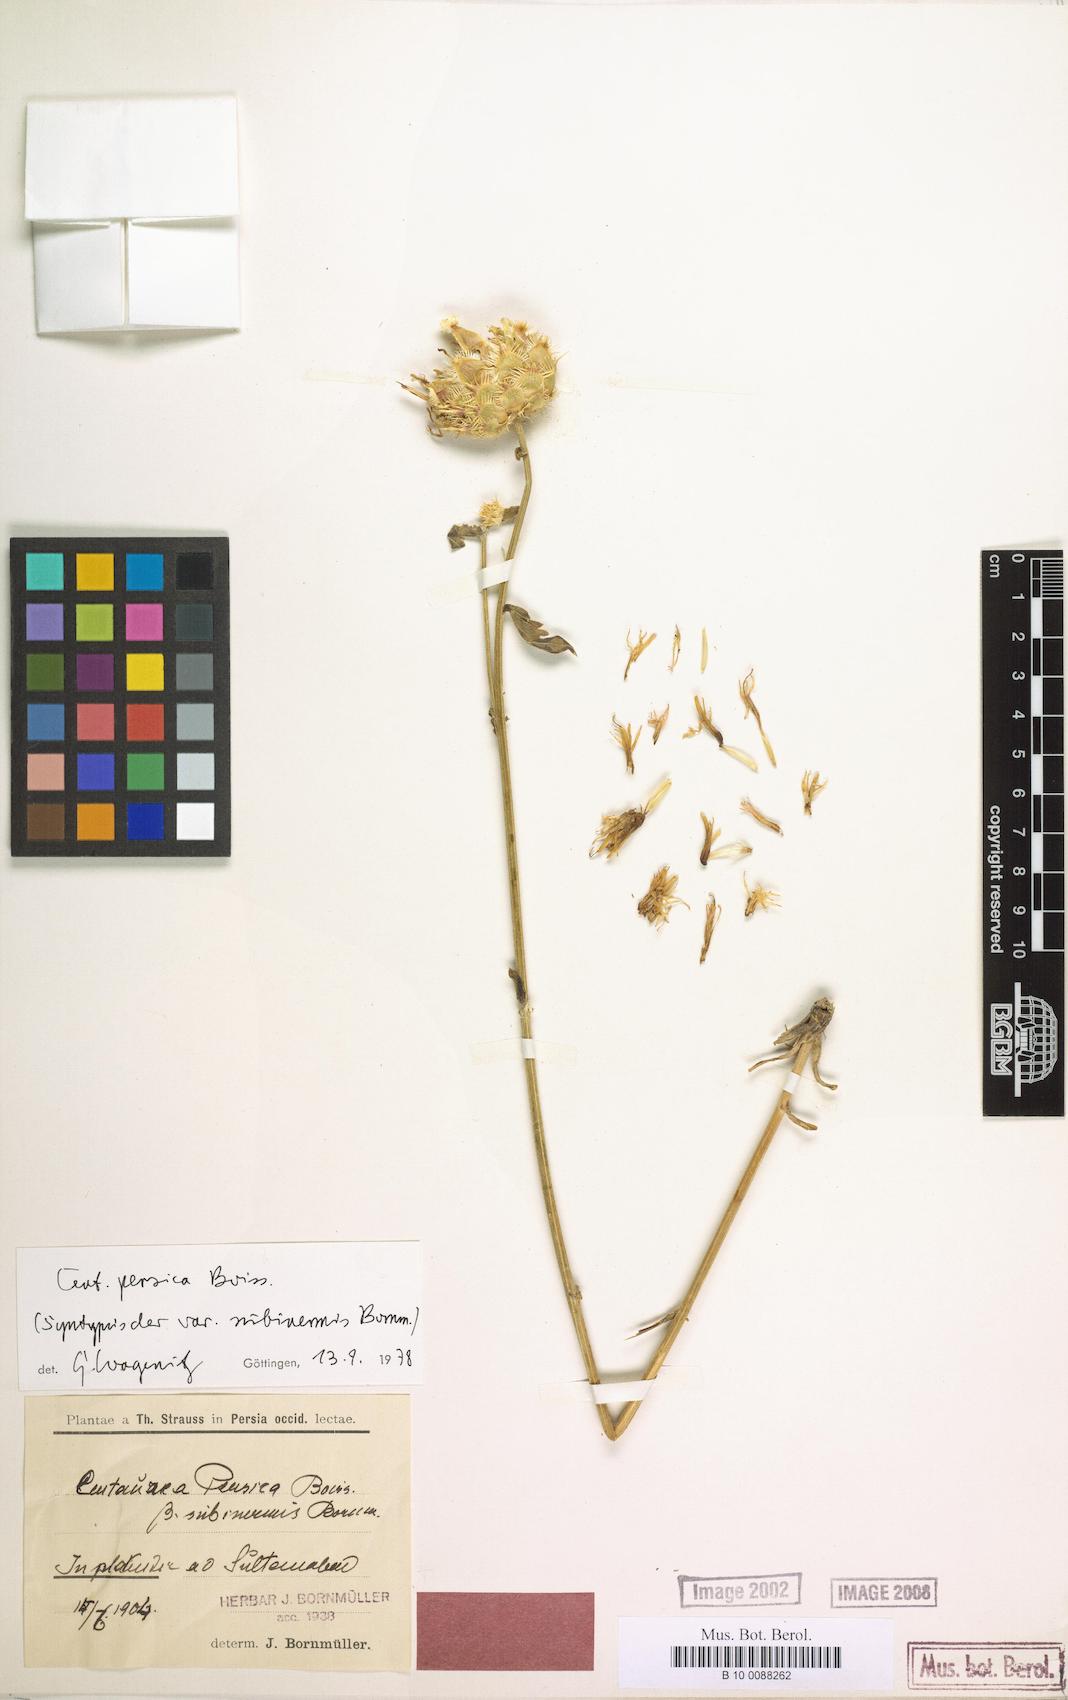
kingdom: Plantae
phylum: Tracheophyta
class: Magnoliopsida
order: Asterales
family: Asteraceae
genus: Centaurea
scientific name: Centaurea persica
